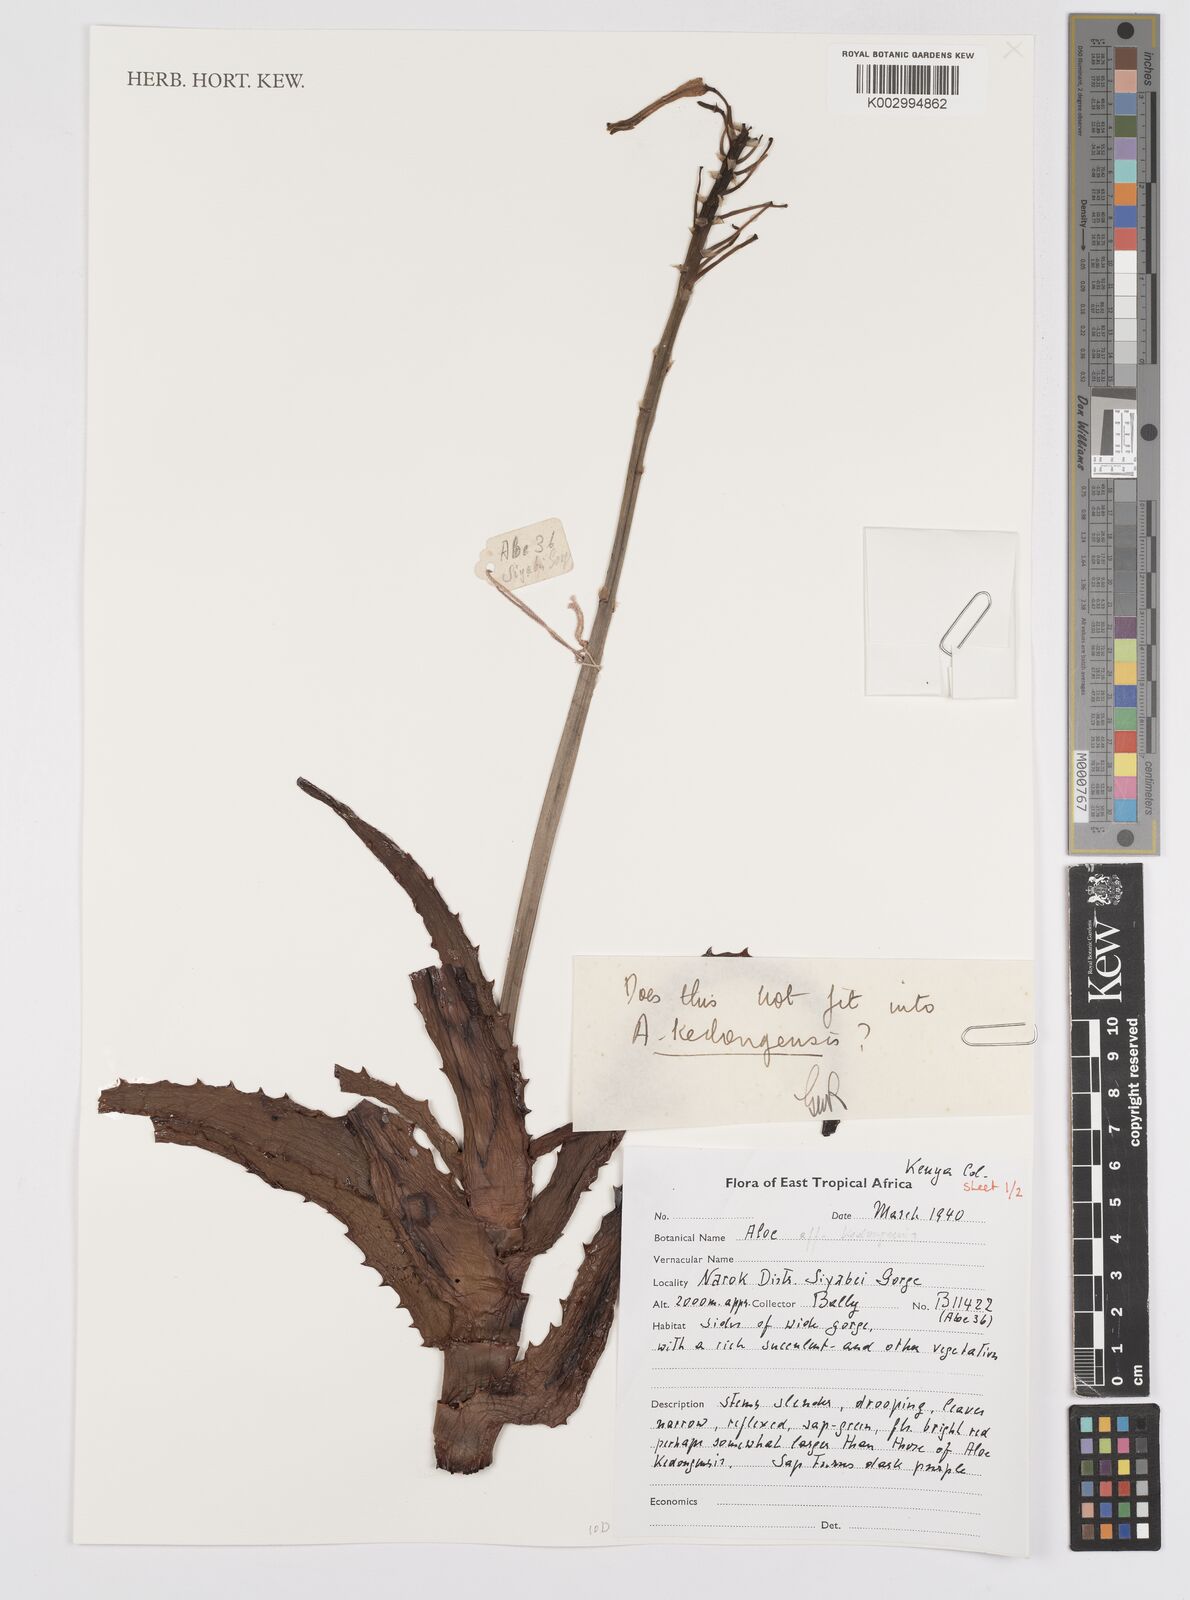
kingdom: Plantae
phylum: Tracheophyta
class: Liliopsida
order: Asparagales
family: Asphodelaceae
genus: Aloe
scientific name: Aloe kedongensis
